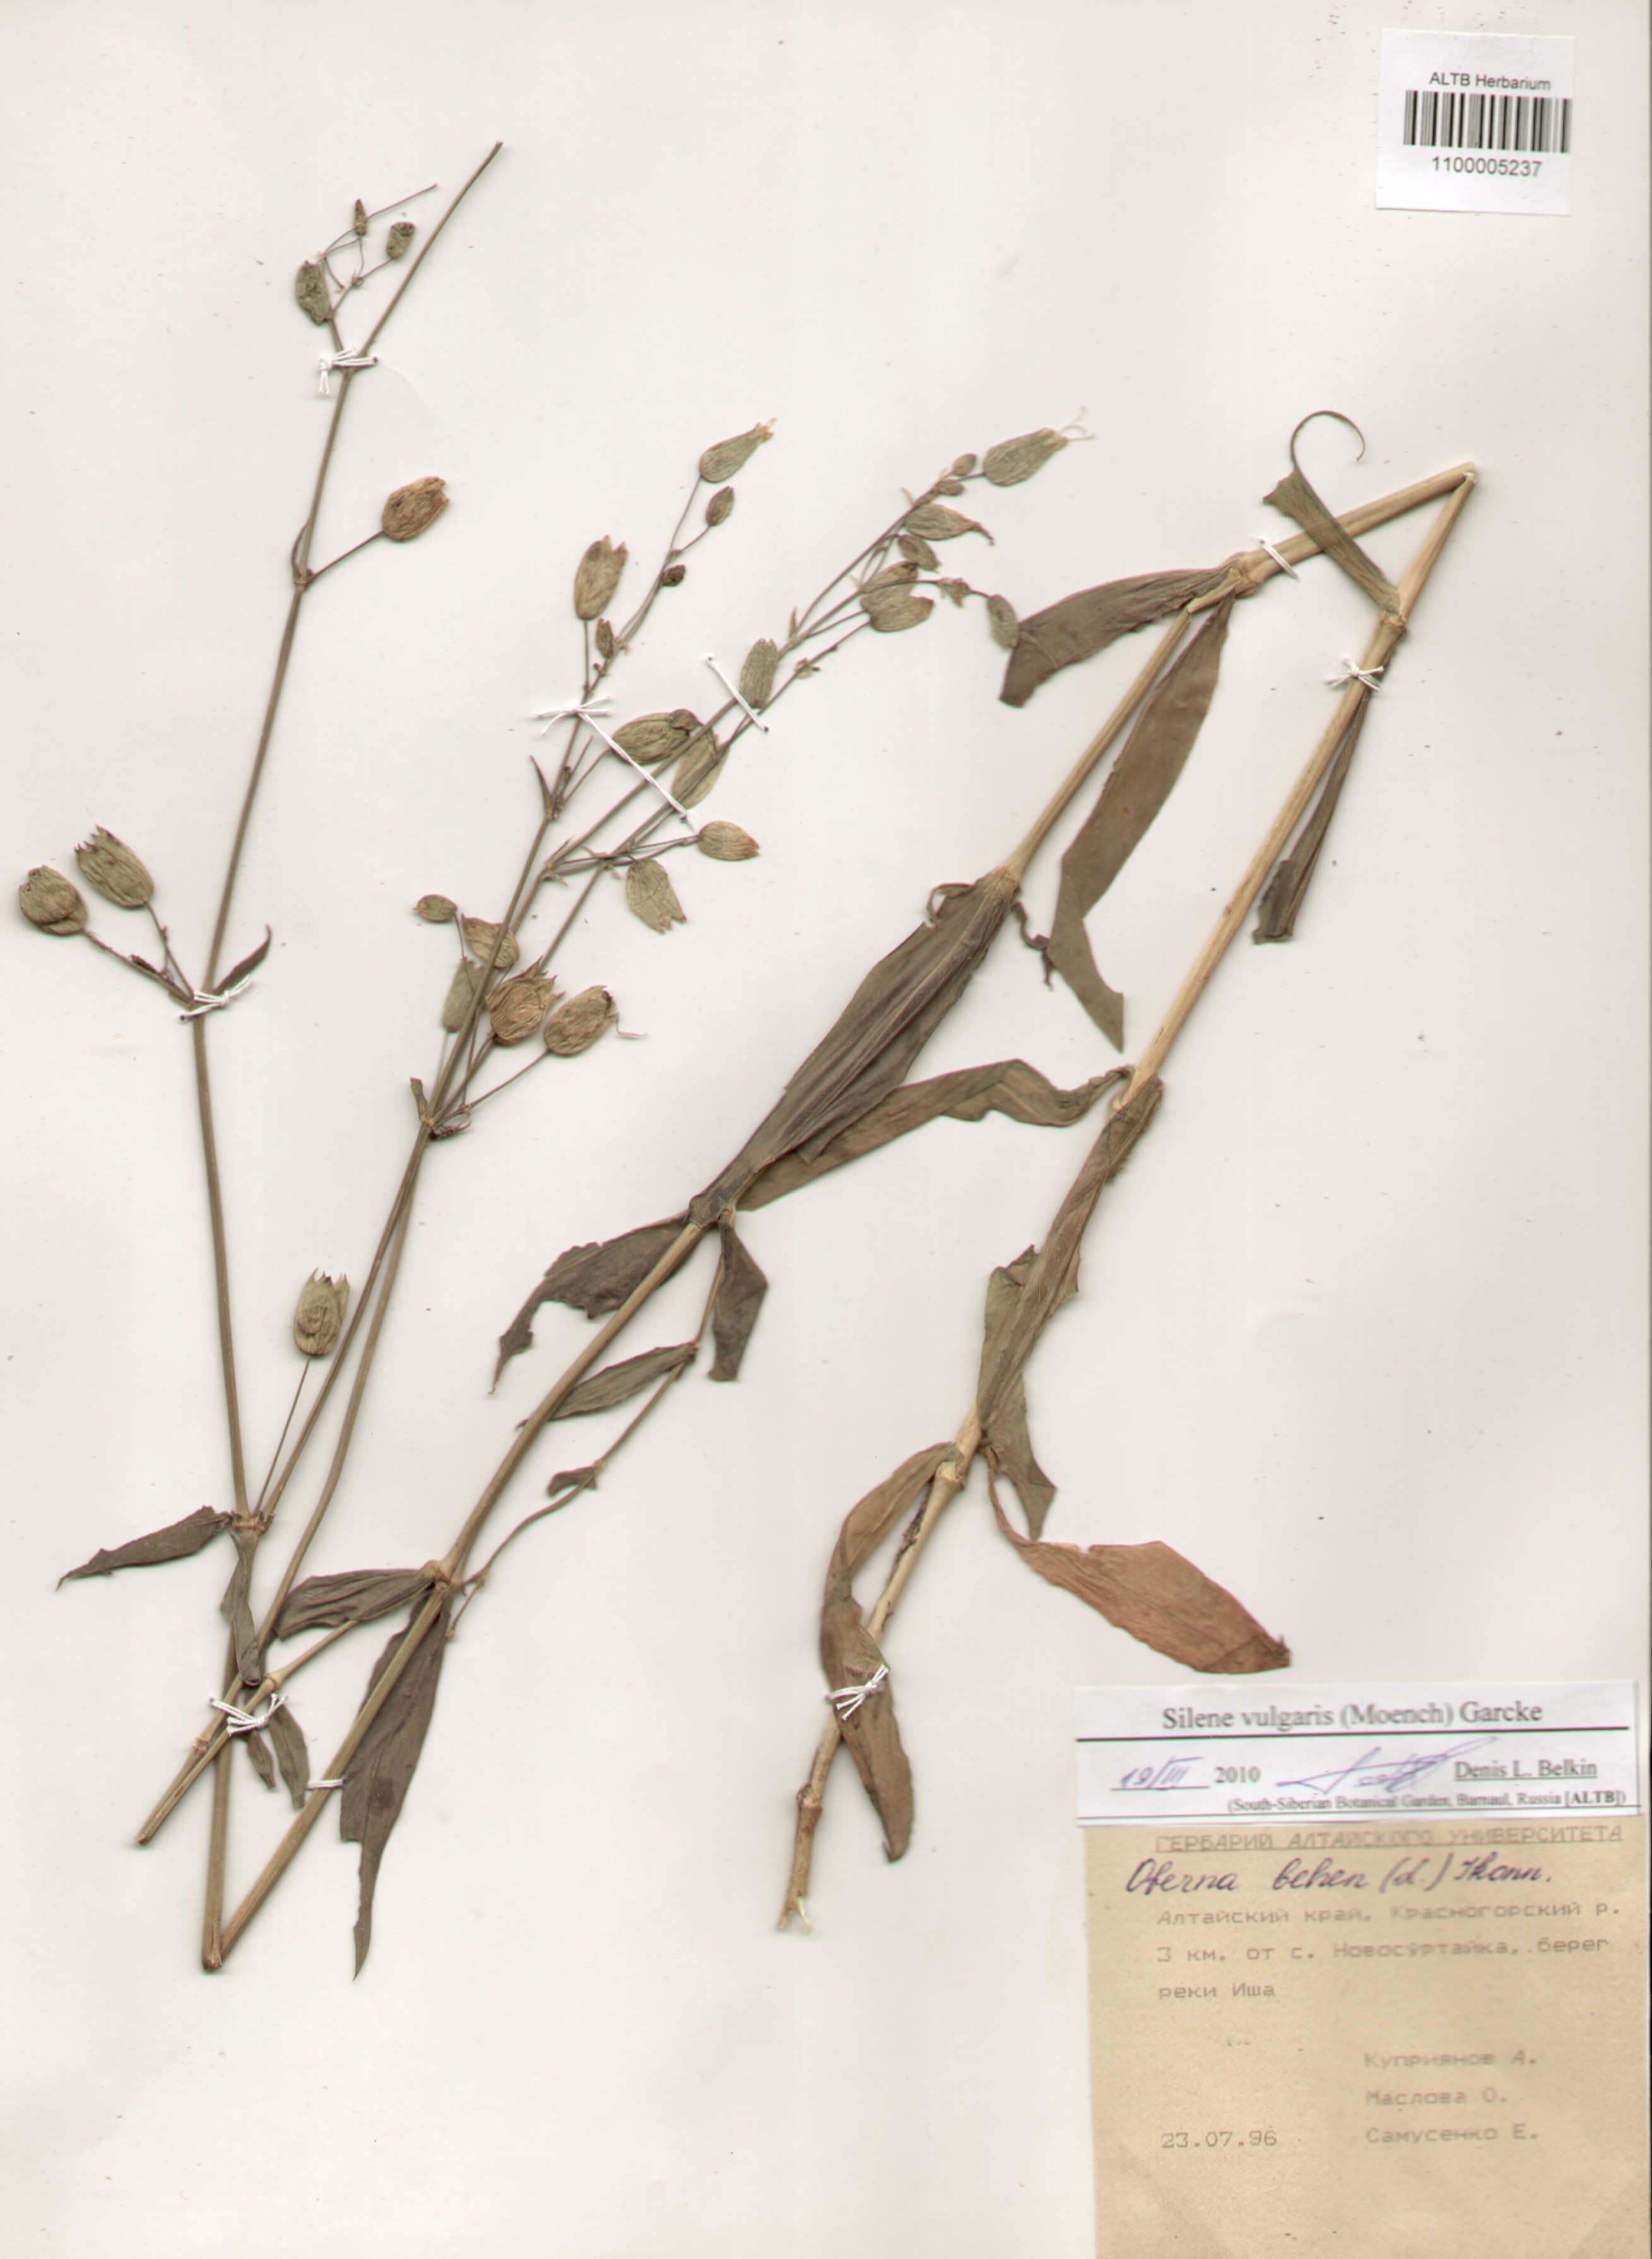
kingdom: Plantae
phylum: Tracheophyta
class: Magnoliopsida
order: Caryophyllales
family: Caryophyllaceae
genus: Silene
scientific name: Silene vulgaris
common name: Bladder campion
